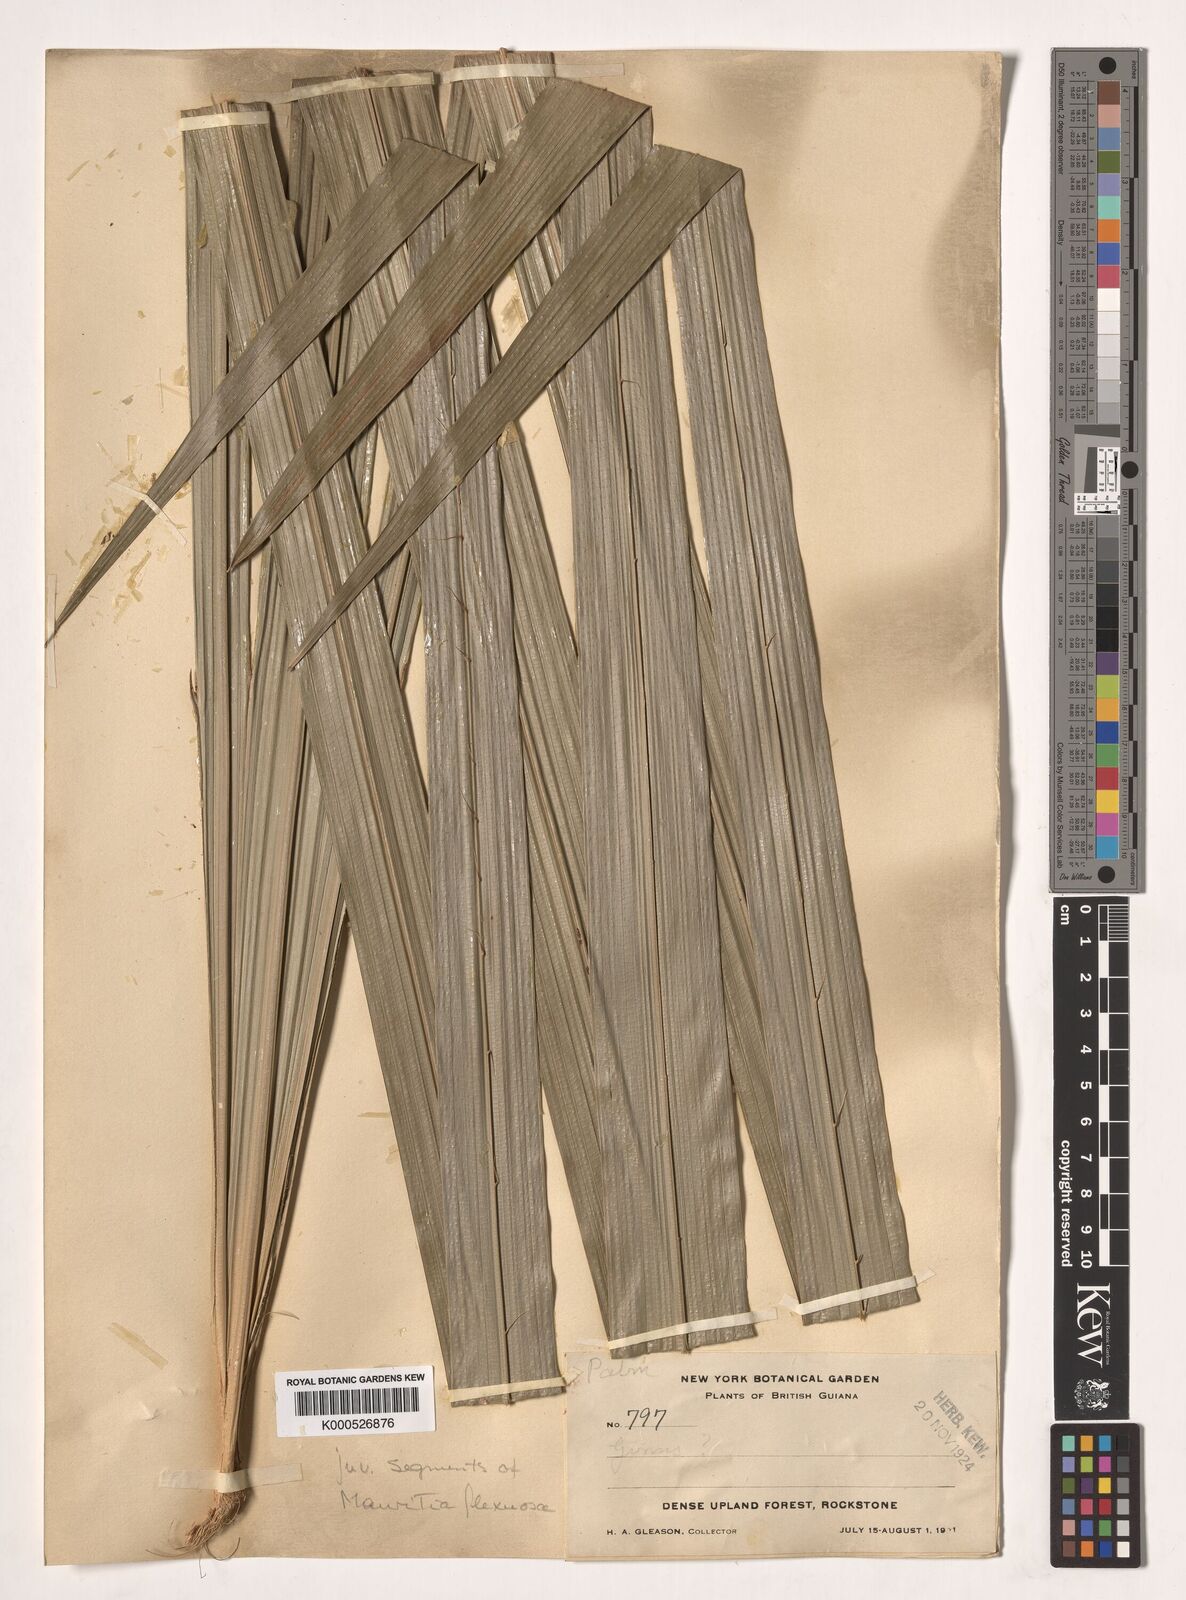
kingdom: Plantae
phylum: Tracheophyta
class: Liliopsida
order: Arecales
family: Arecaceae
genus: Mauritia
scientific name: Mauritia flexuosa
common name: Tree-of-life
